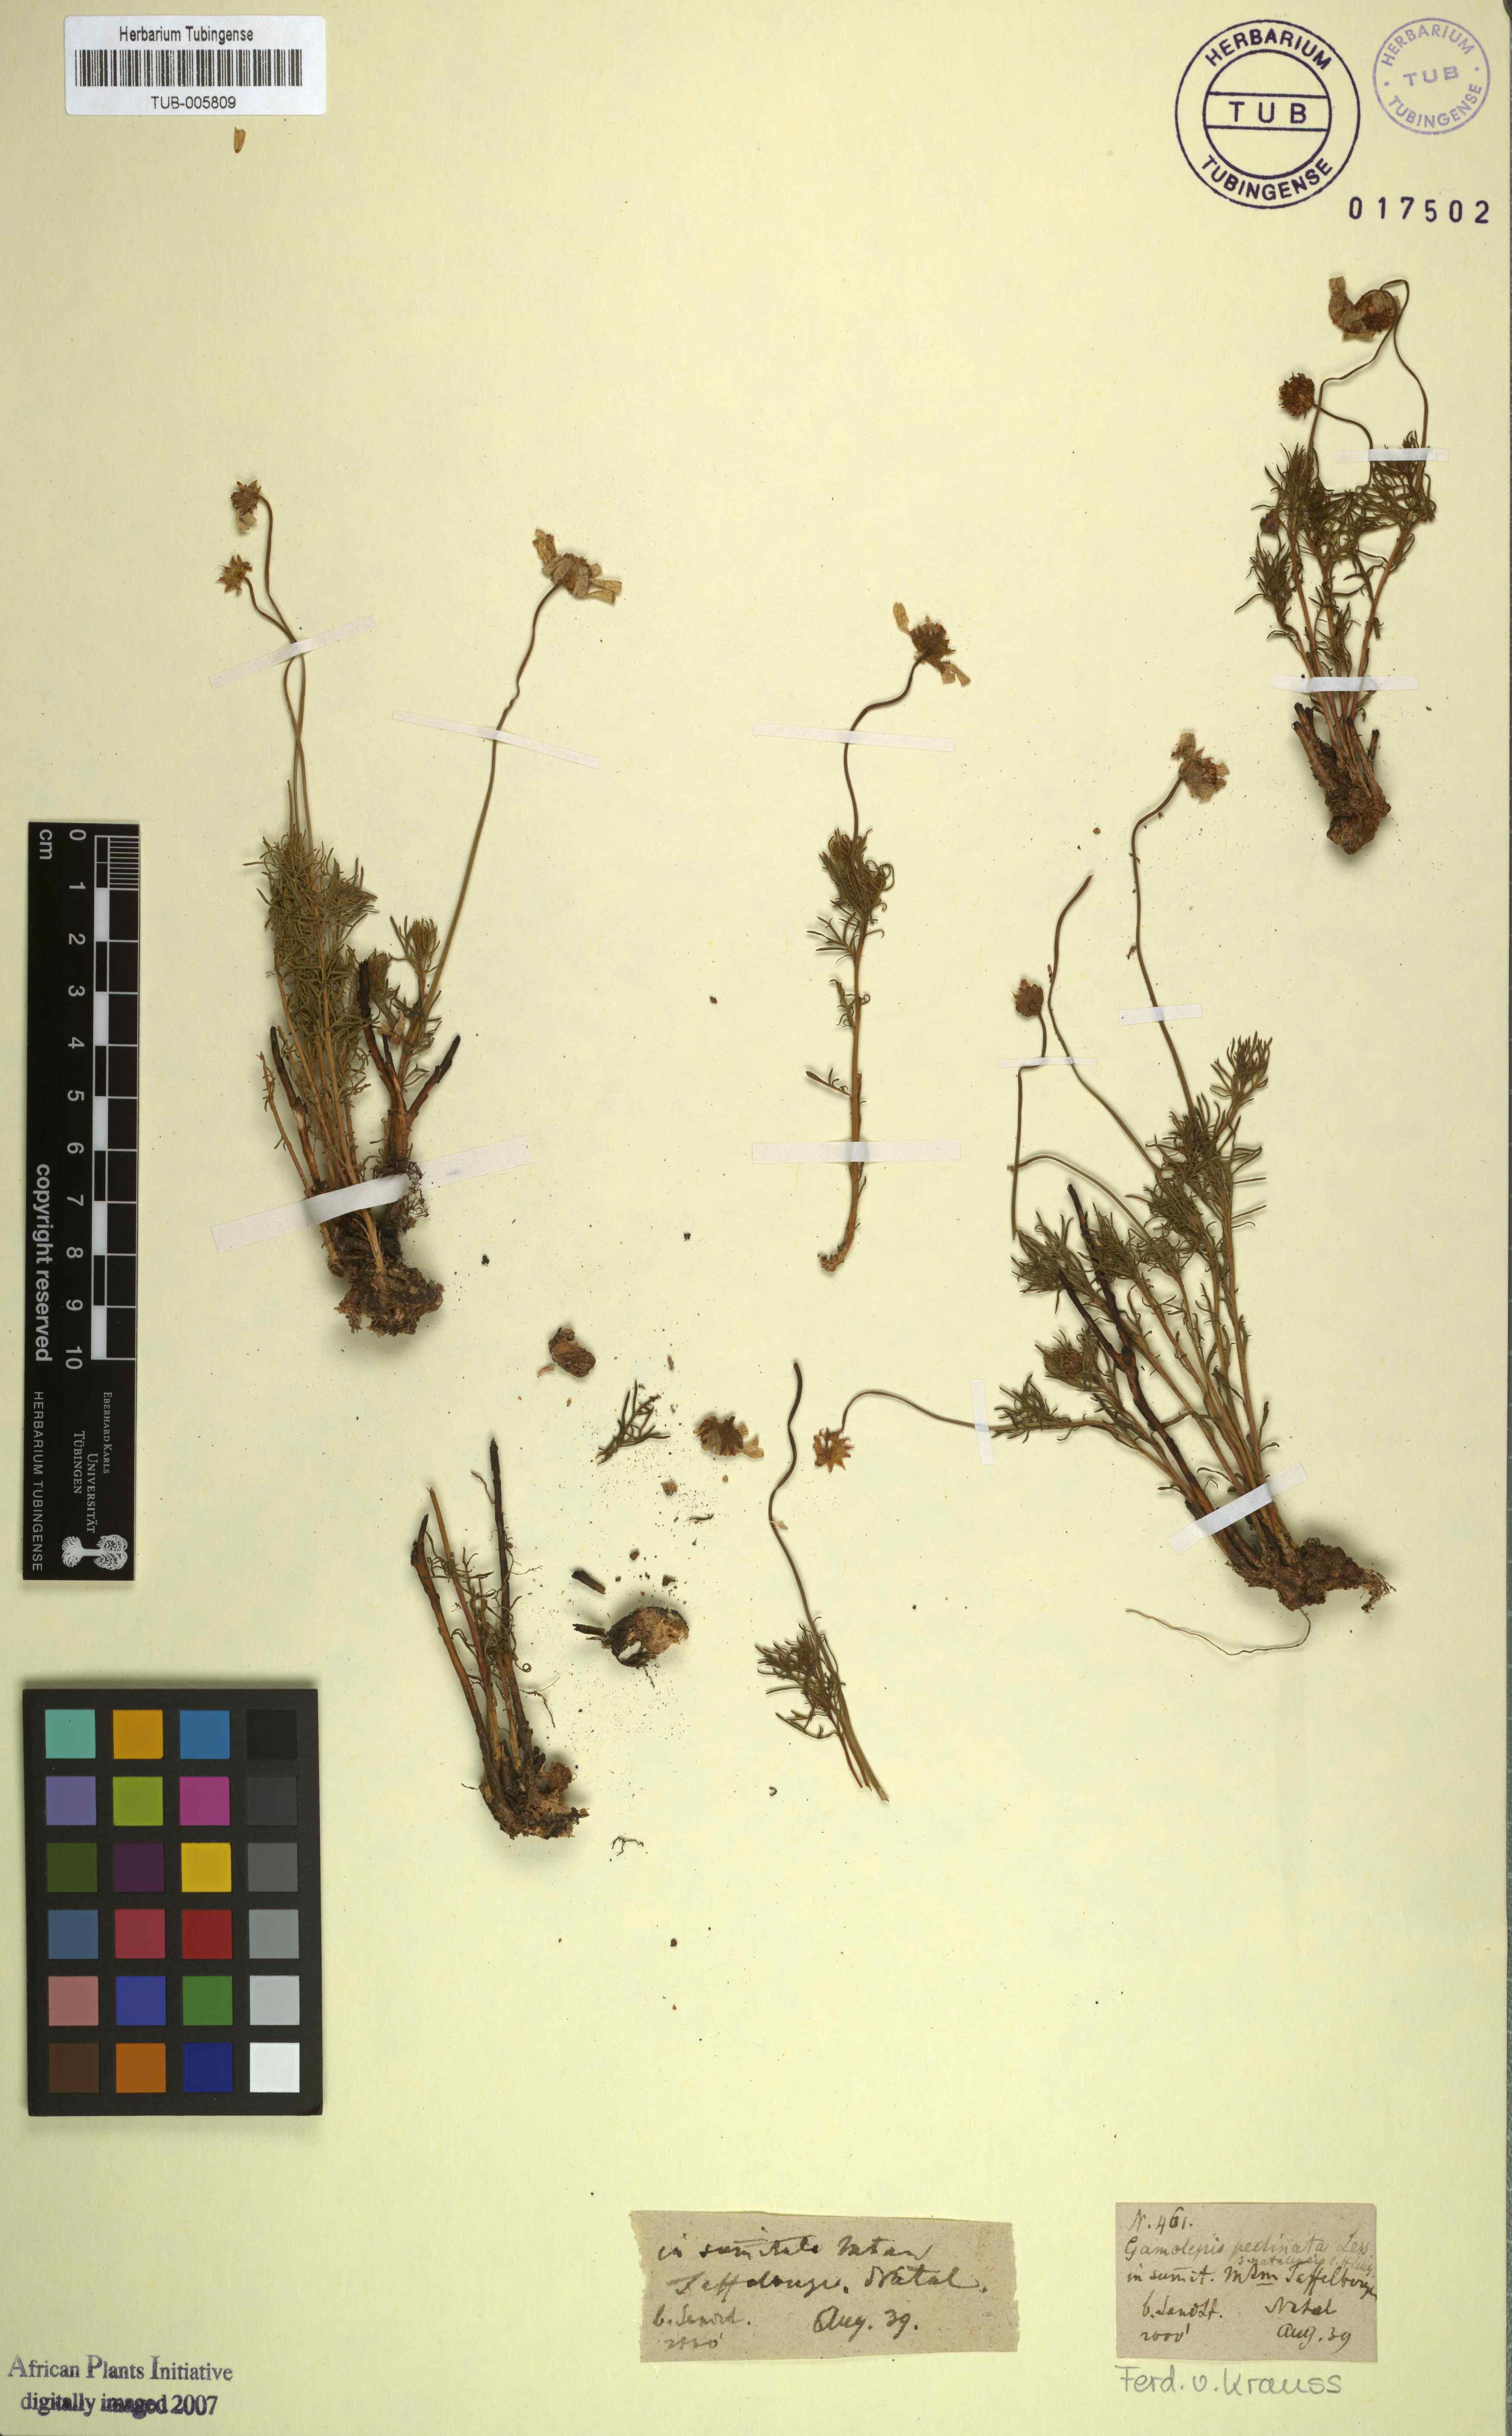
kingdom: Plantae
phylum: Tracheophyta
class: Magnoliopsida
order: Asterales
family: Asteraceae
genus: Euryops
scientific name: Euryops pinnatipartitus
